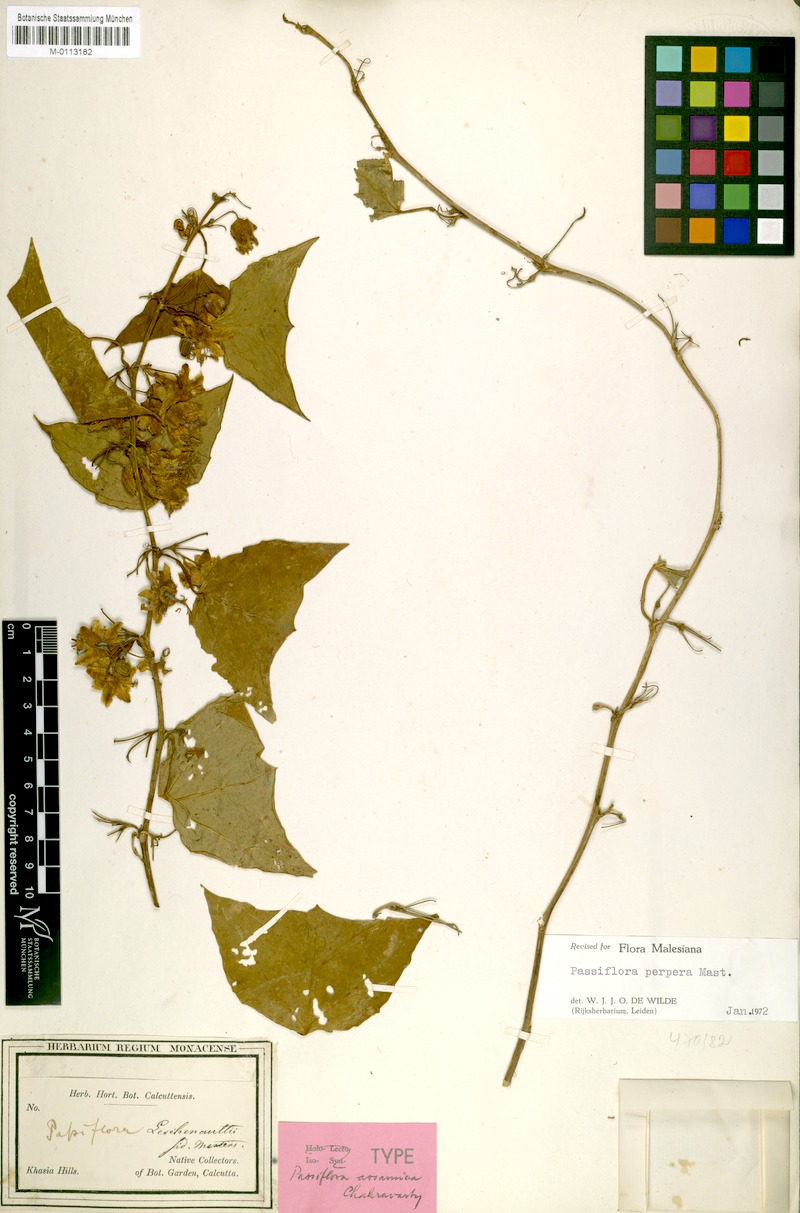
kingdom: Plantae
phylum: Tracheophyta
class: Magnoliopsida
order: Malpighiales
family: Passifloraceae
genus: Passiflora
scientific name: Passiflora wilsonii
